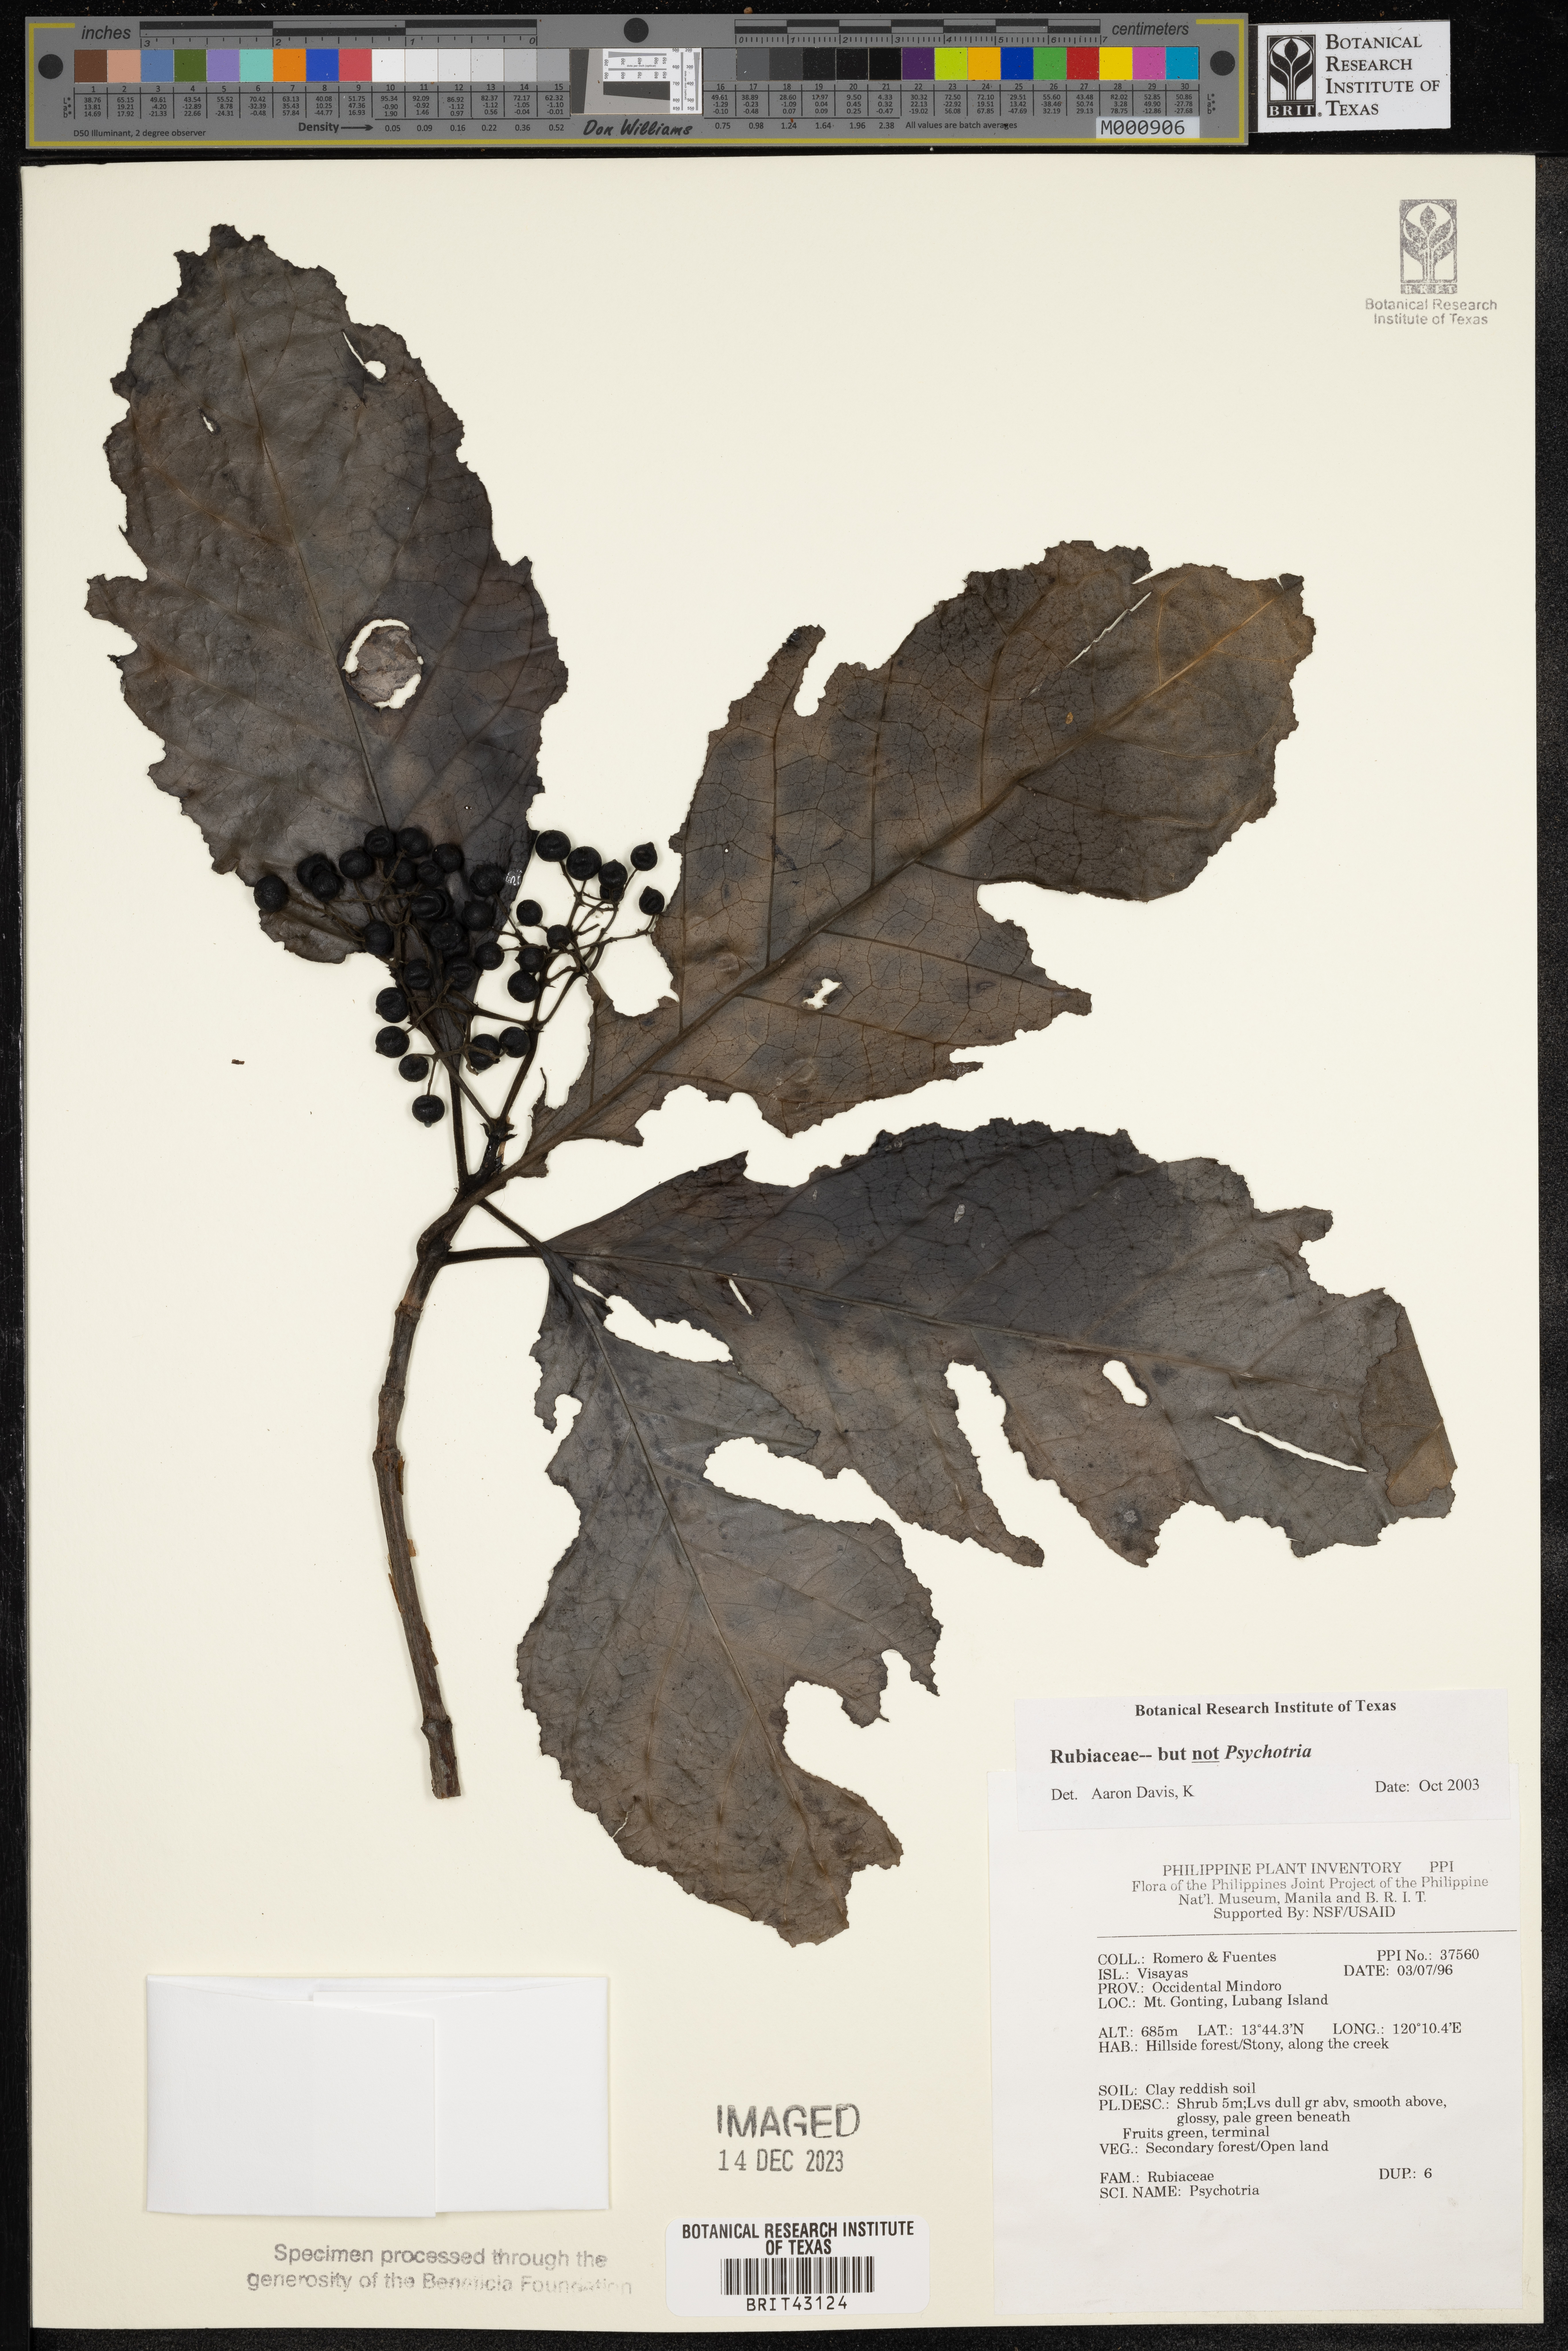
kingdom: Plantae
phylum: Tracheophyta
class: Magnoliopsida
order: Gentianales
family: Rubiaceae
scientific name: Rubiaceae
